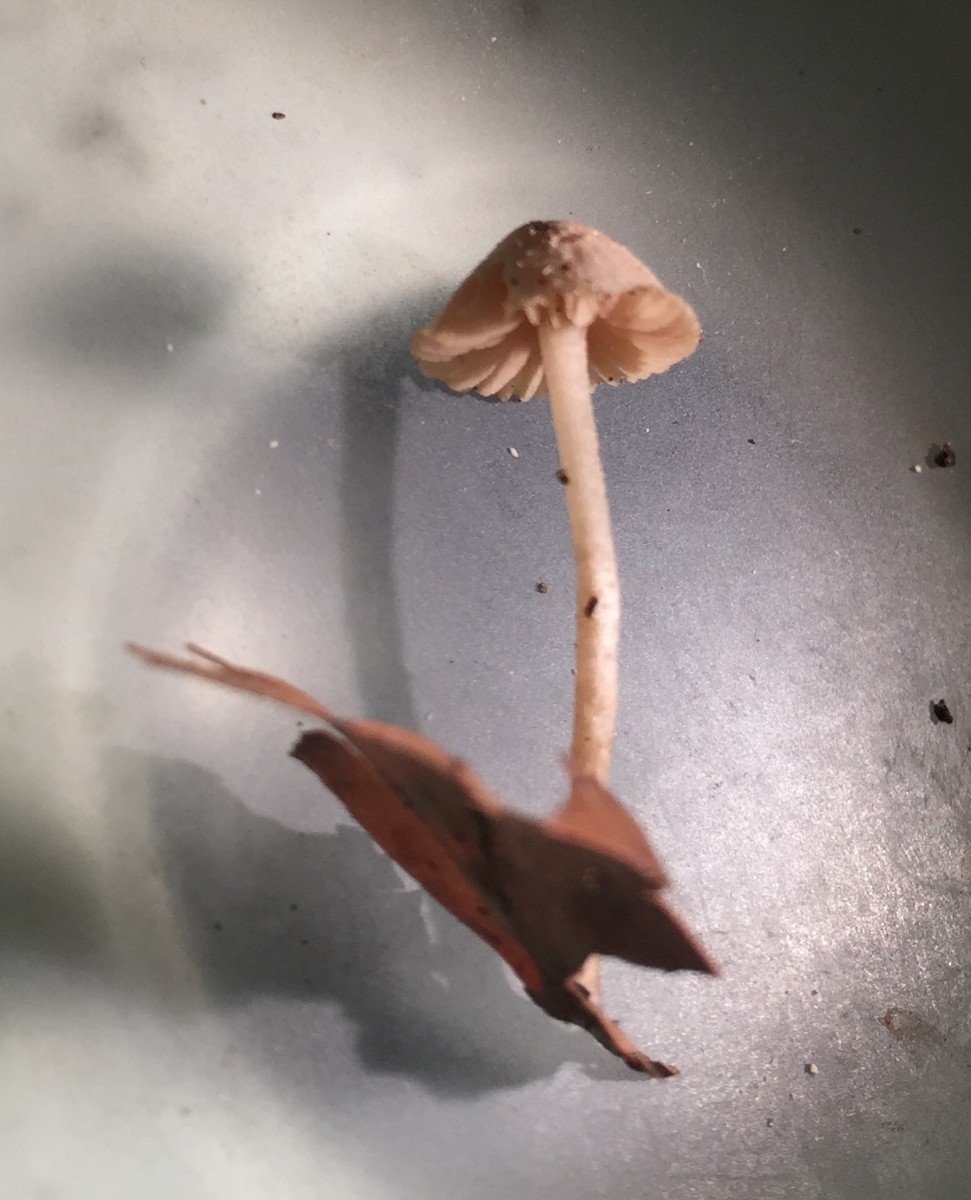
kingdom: Fungi
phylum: Basidiomycota
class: Agaricomycetes
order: Agaricales
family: Tubariaceae
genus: Flammulaster
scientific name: Flammulaster carpophilus
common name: bøge-grynskælhat
